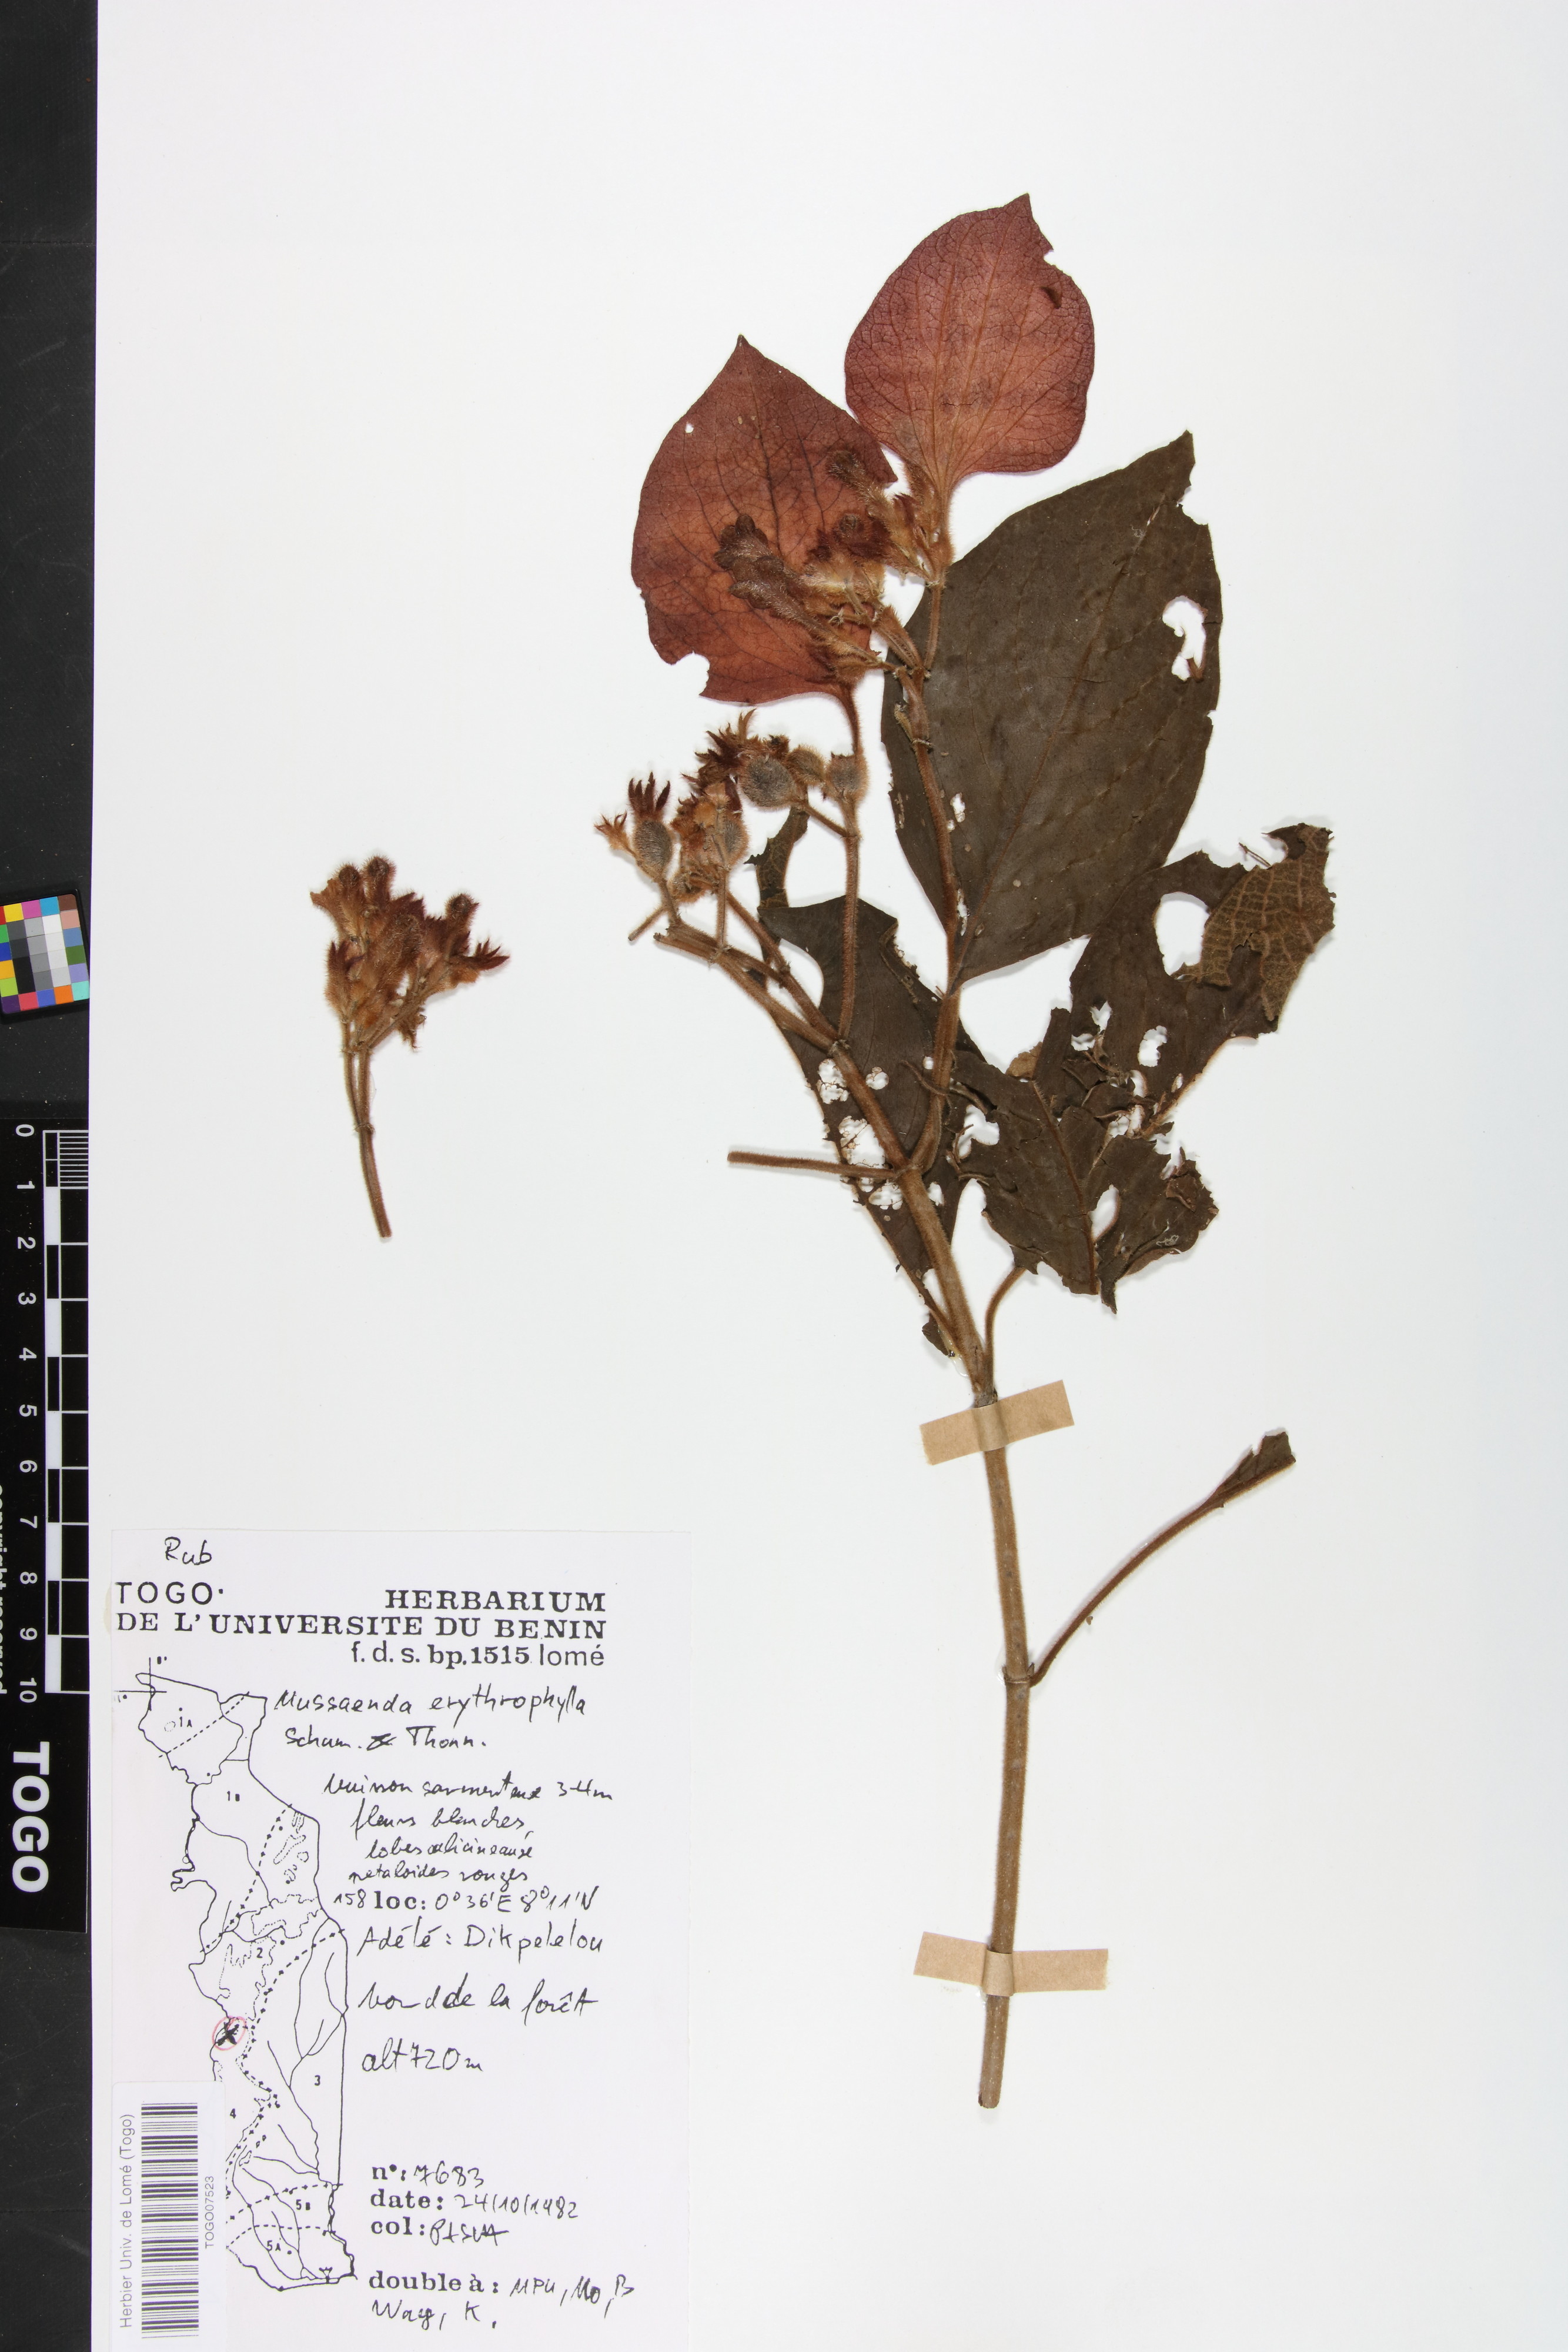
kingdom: Plantae
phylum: Tracheophyta
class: Magnoliopsida
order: Gentianales
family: Rubiaceae
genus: Mussaenda
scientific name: Mussaenda erythrophylla
